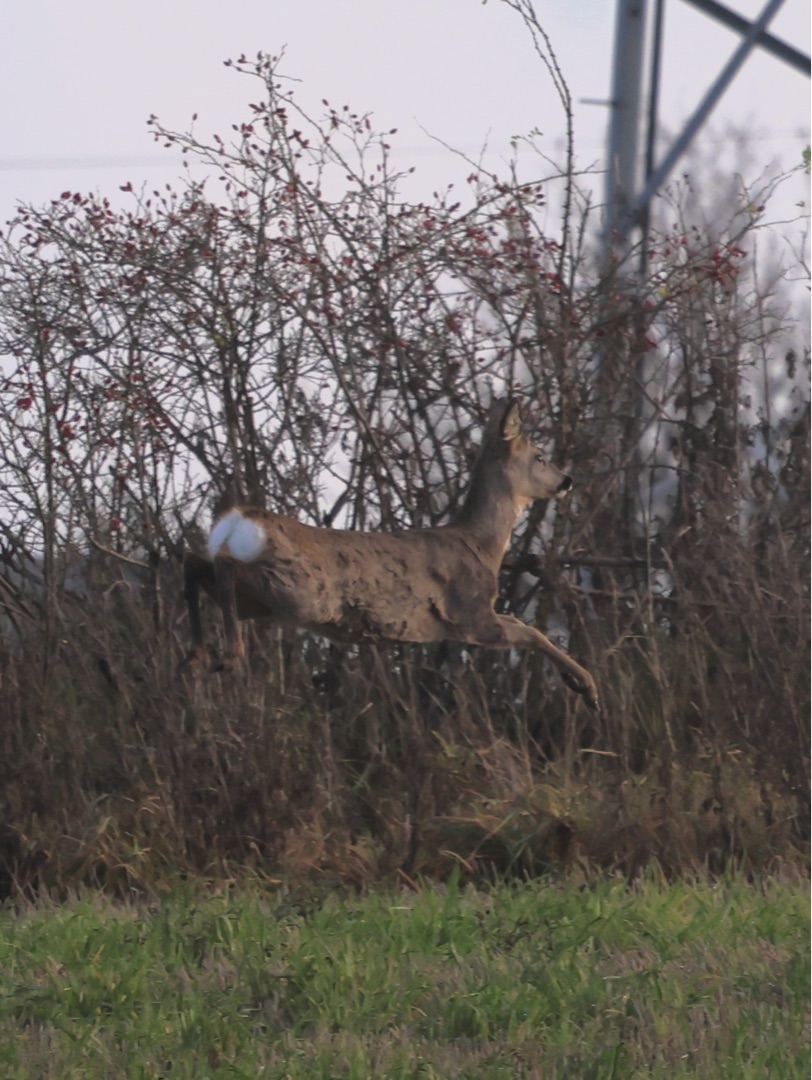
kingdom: Animalia
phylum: Chordata
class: Mammalia
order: Artiodactyla
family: Cervidae
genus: Capreolus
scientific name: Capreolus capreolus
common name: Rådyr
